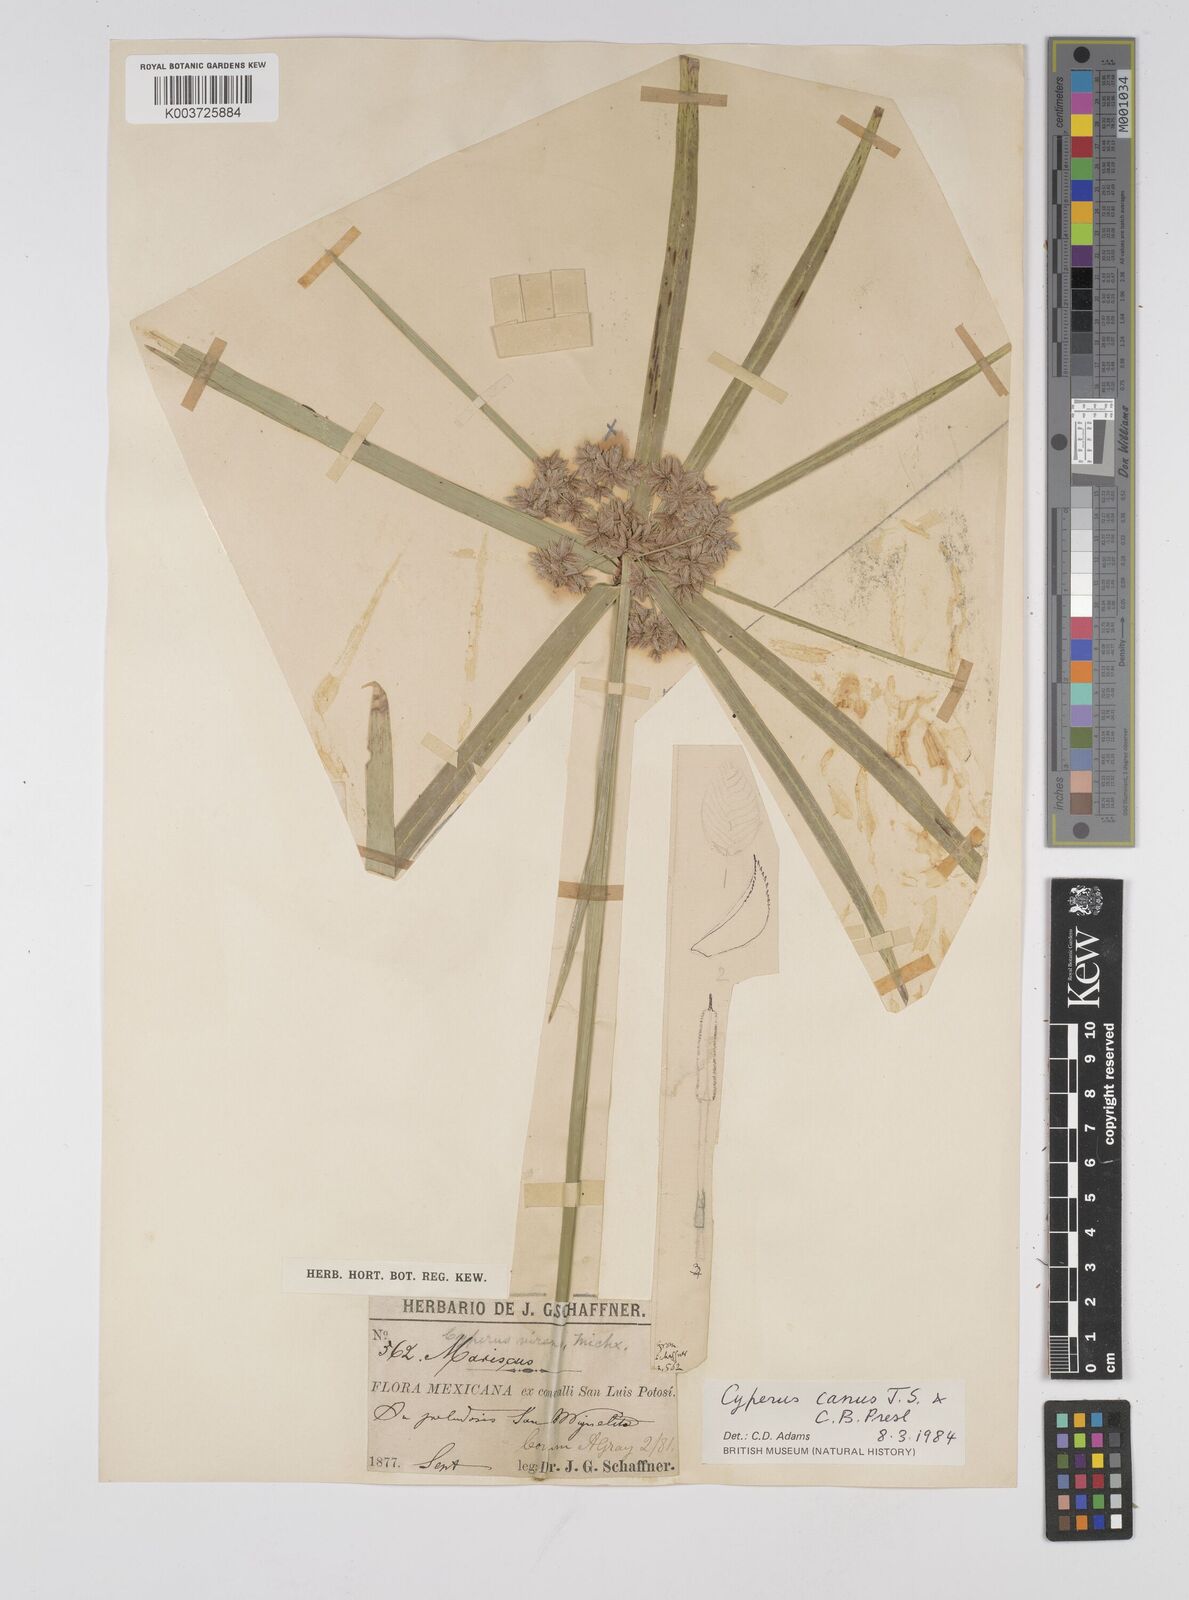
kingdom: Plantae
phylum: Tracheophyta
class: Liliopsida
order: Poales
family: Cyperaceae
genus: Cyperus
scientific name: Cyperus canus
